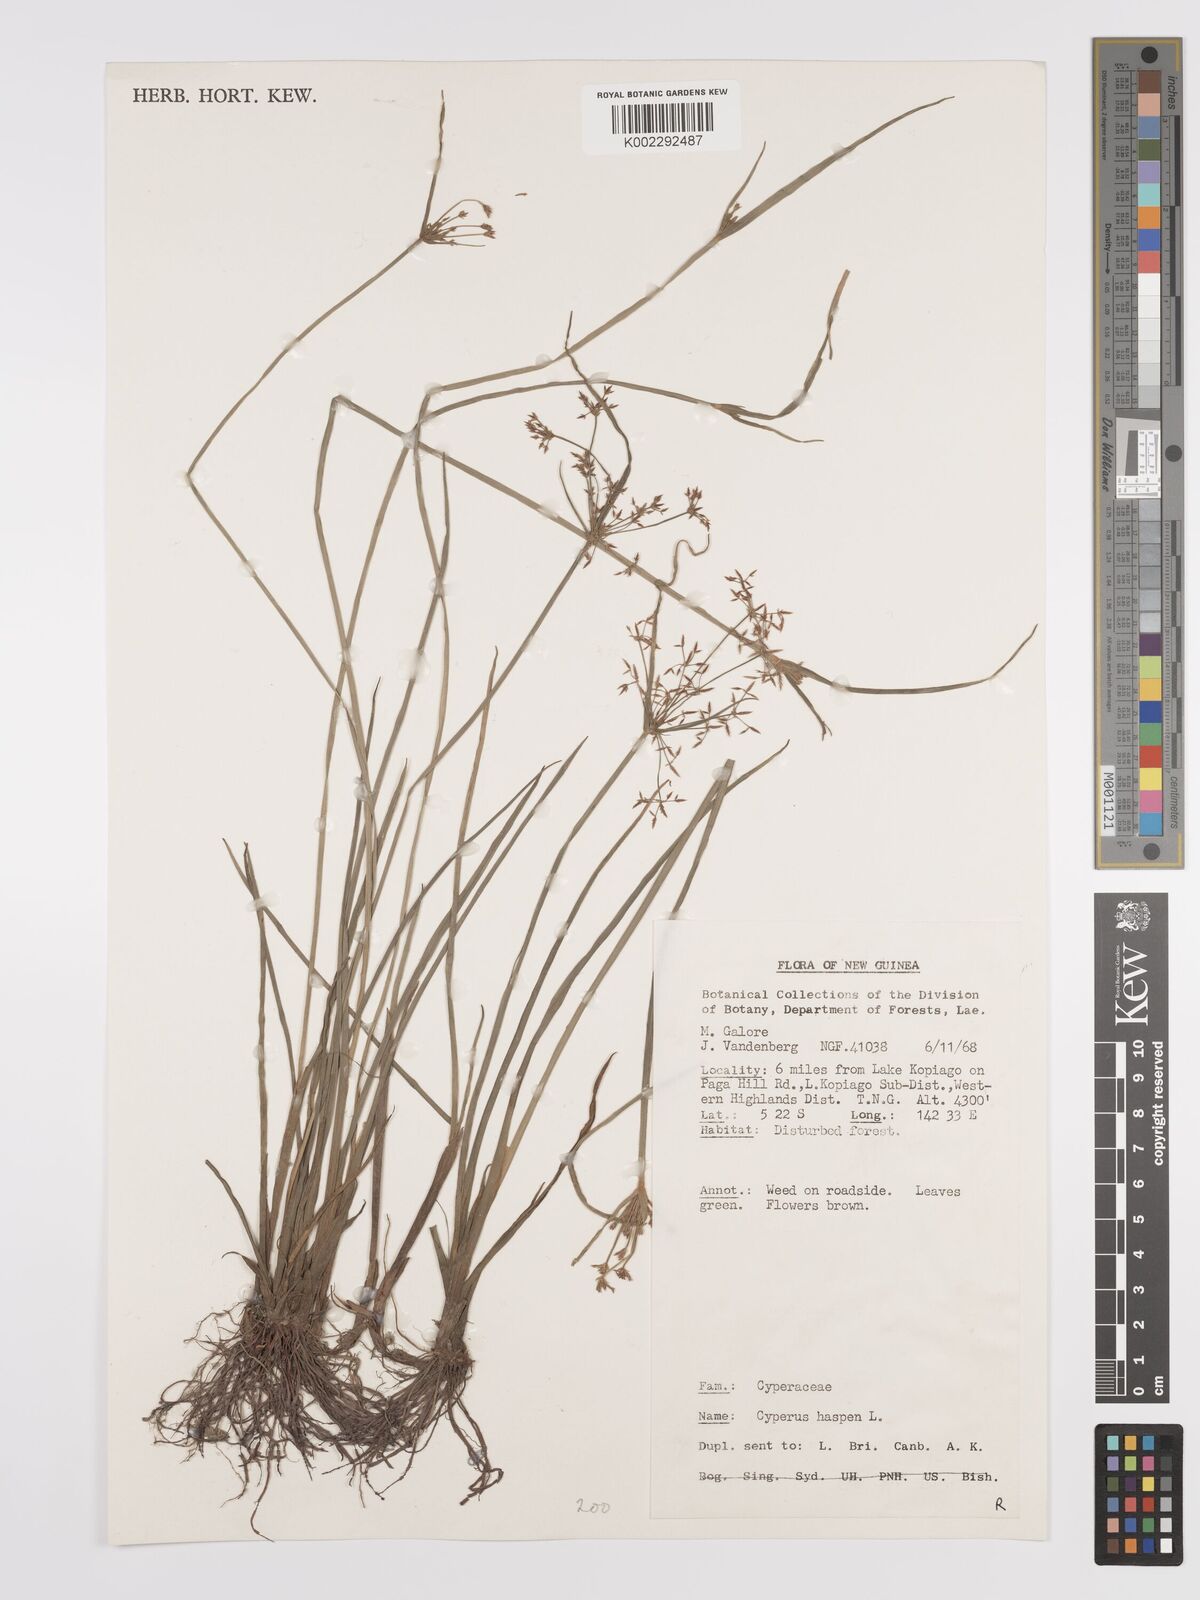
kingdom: Plantae
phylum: Tracheophyta
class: Liliopsida
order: Poales
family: Cyperaceae
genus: Cyperus
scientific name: Cyperus haspan
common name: Haspan flatsedge
